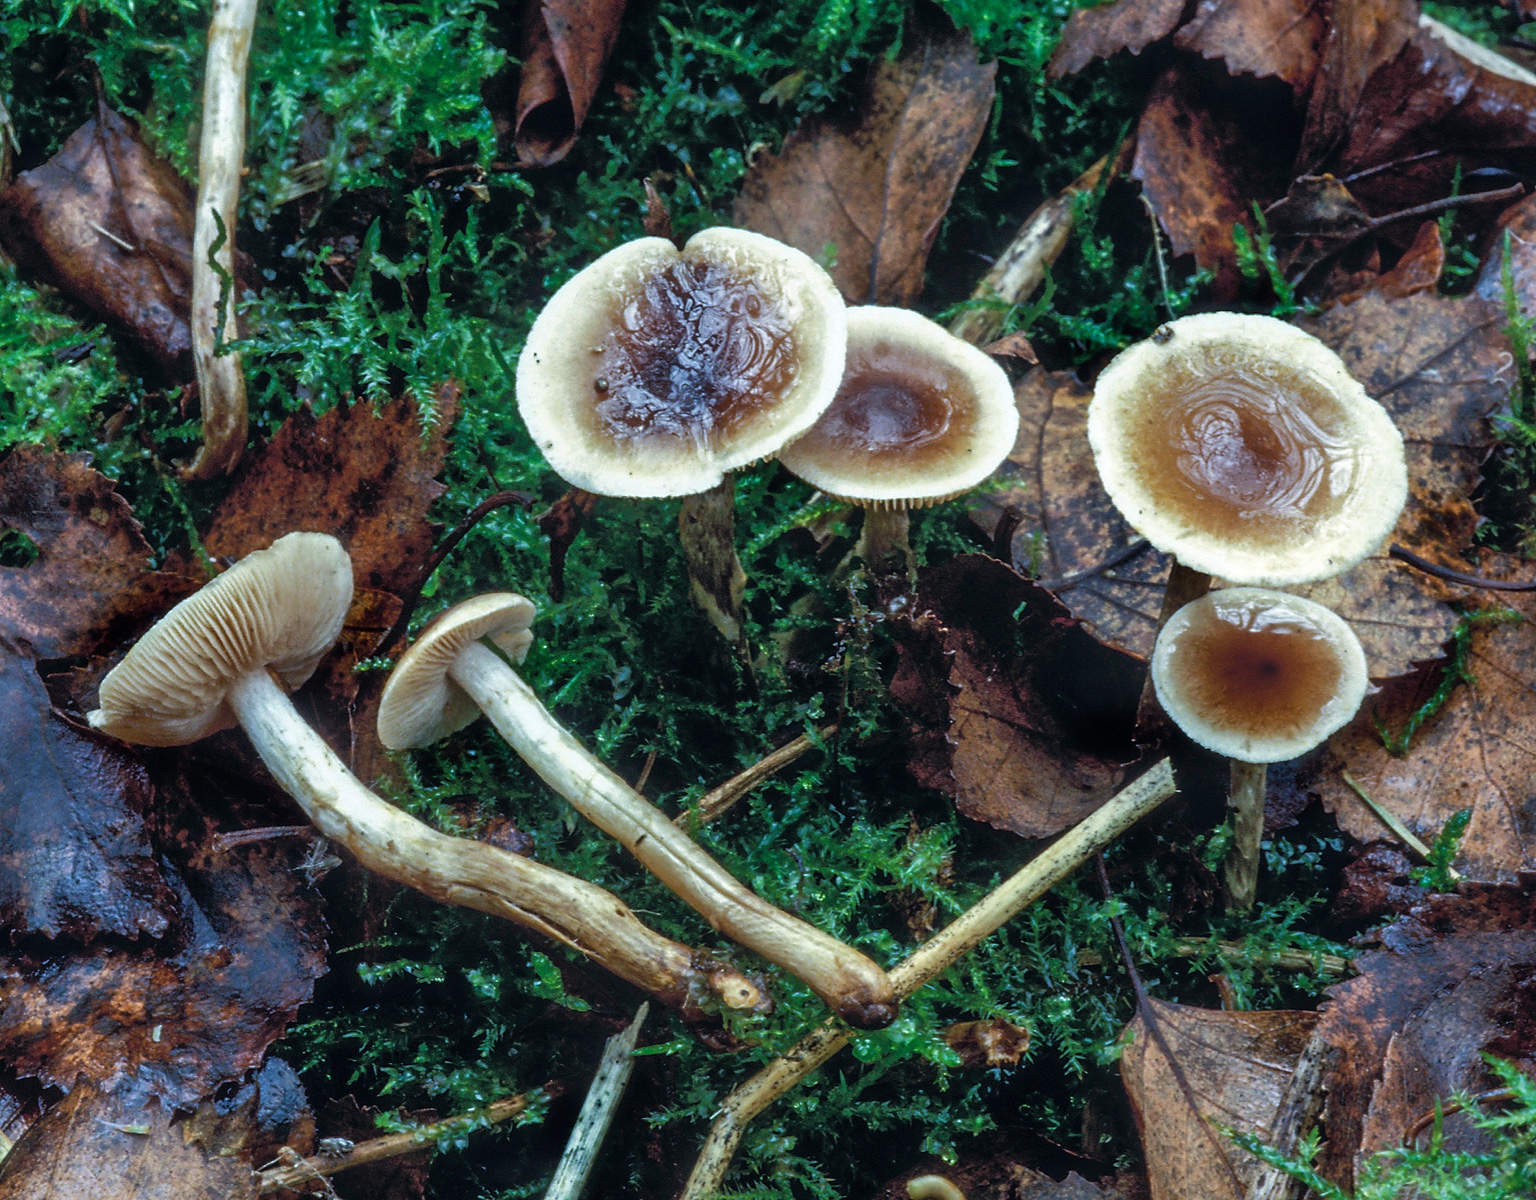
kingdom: Fungi
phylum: Basidiomycota
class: Agaricomycetes
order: Agaricales
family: Hymenogastraceae
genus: Hebeloma
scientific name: Hebeloma discomorbidum
